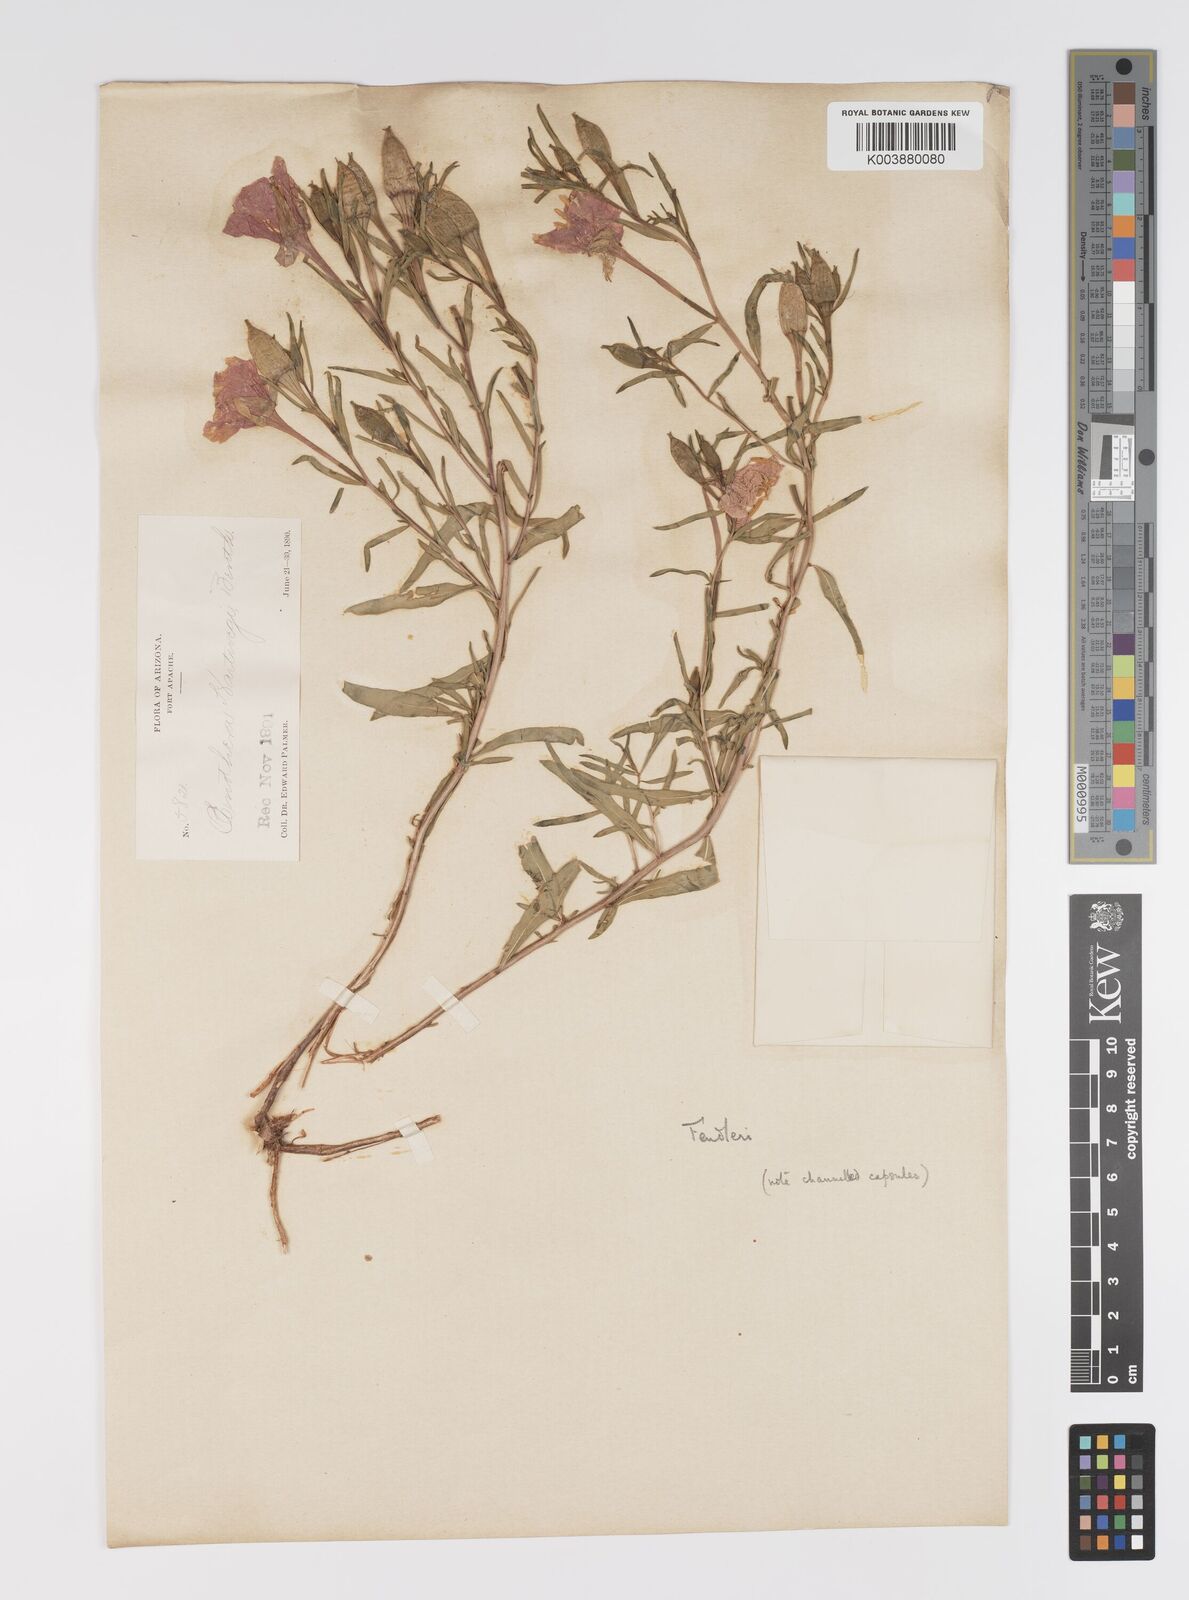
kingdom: Plantae
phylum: Tracheophyta
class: Magnoliopsida
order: Myrtales
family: Onagraceae
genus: Oenothera
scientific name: Oenothera hartwegii
